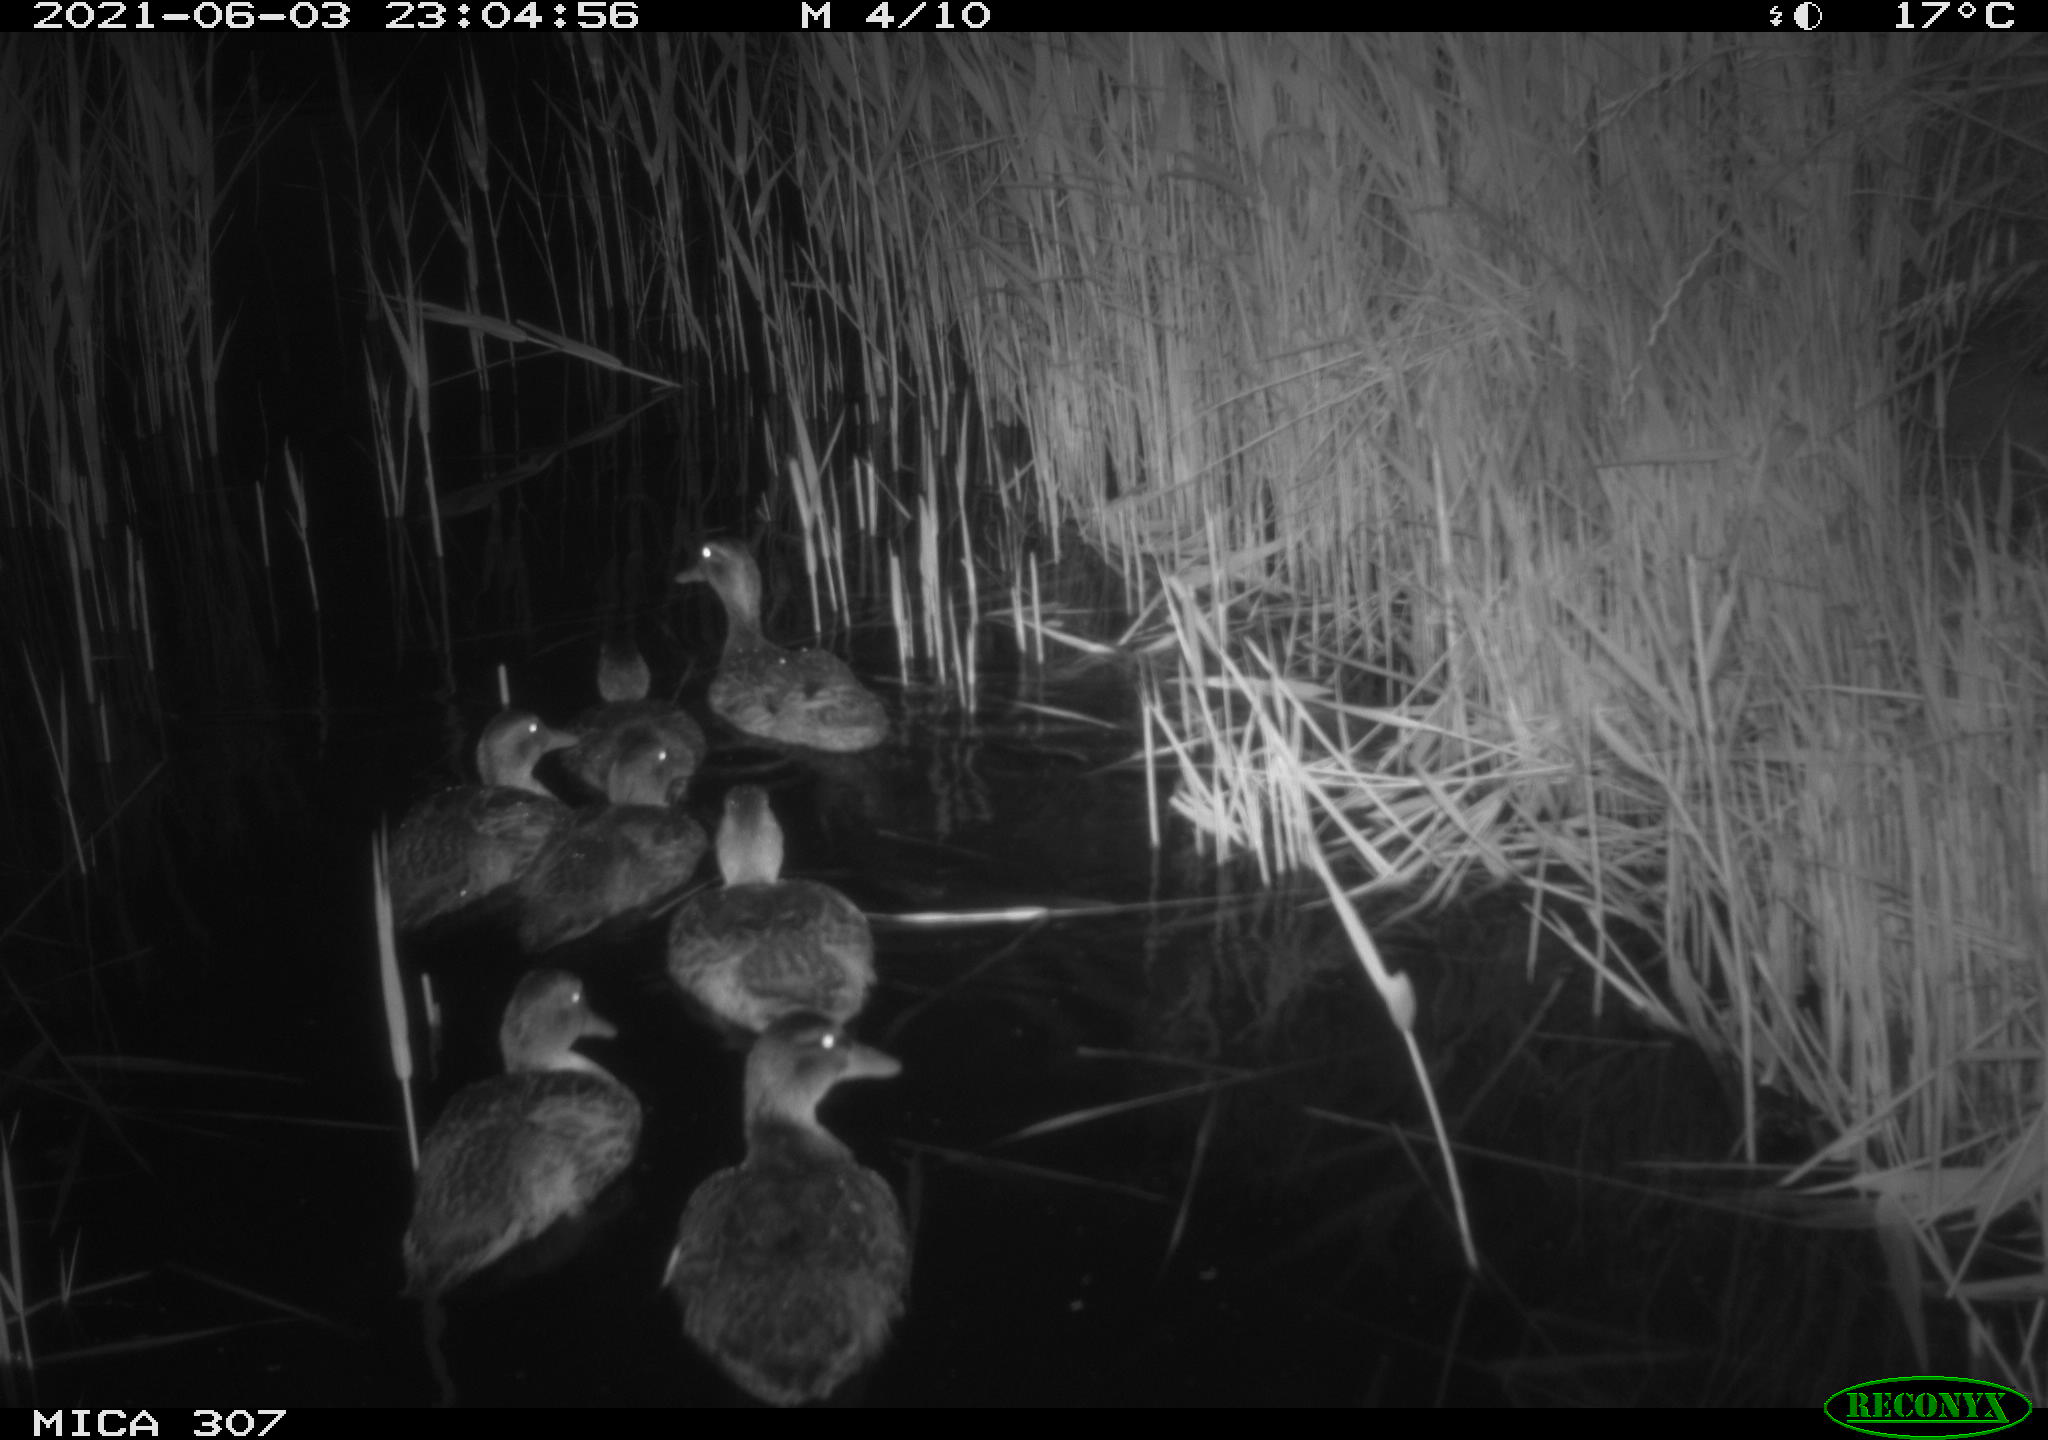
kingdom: Animalia
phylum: Chordata
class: Aves
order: Anseriformes
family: Anatidae
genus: Anas
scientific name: Anas platyrhynchos
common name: Mallard
